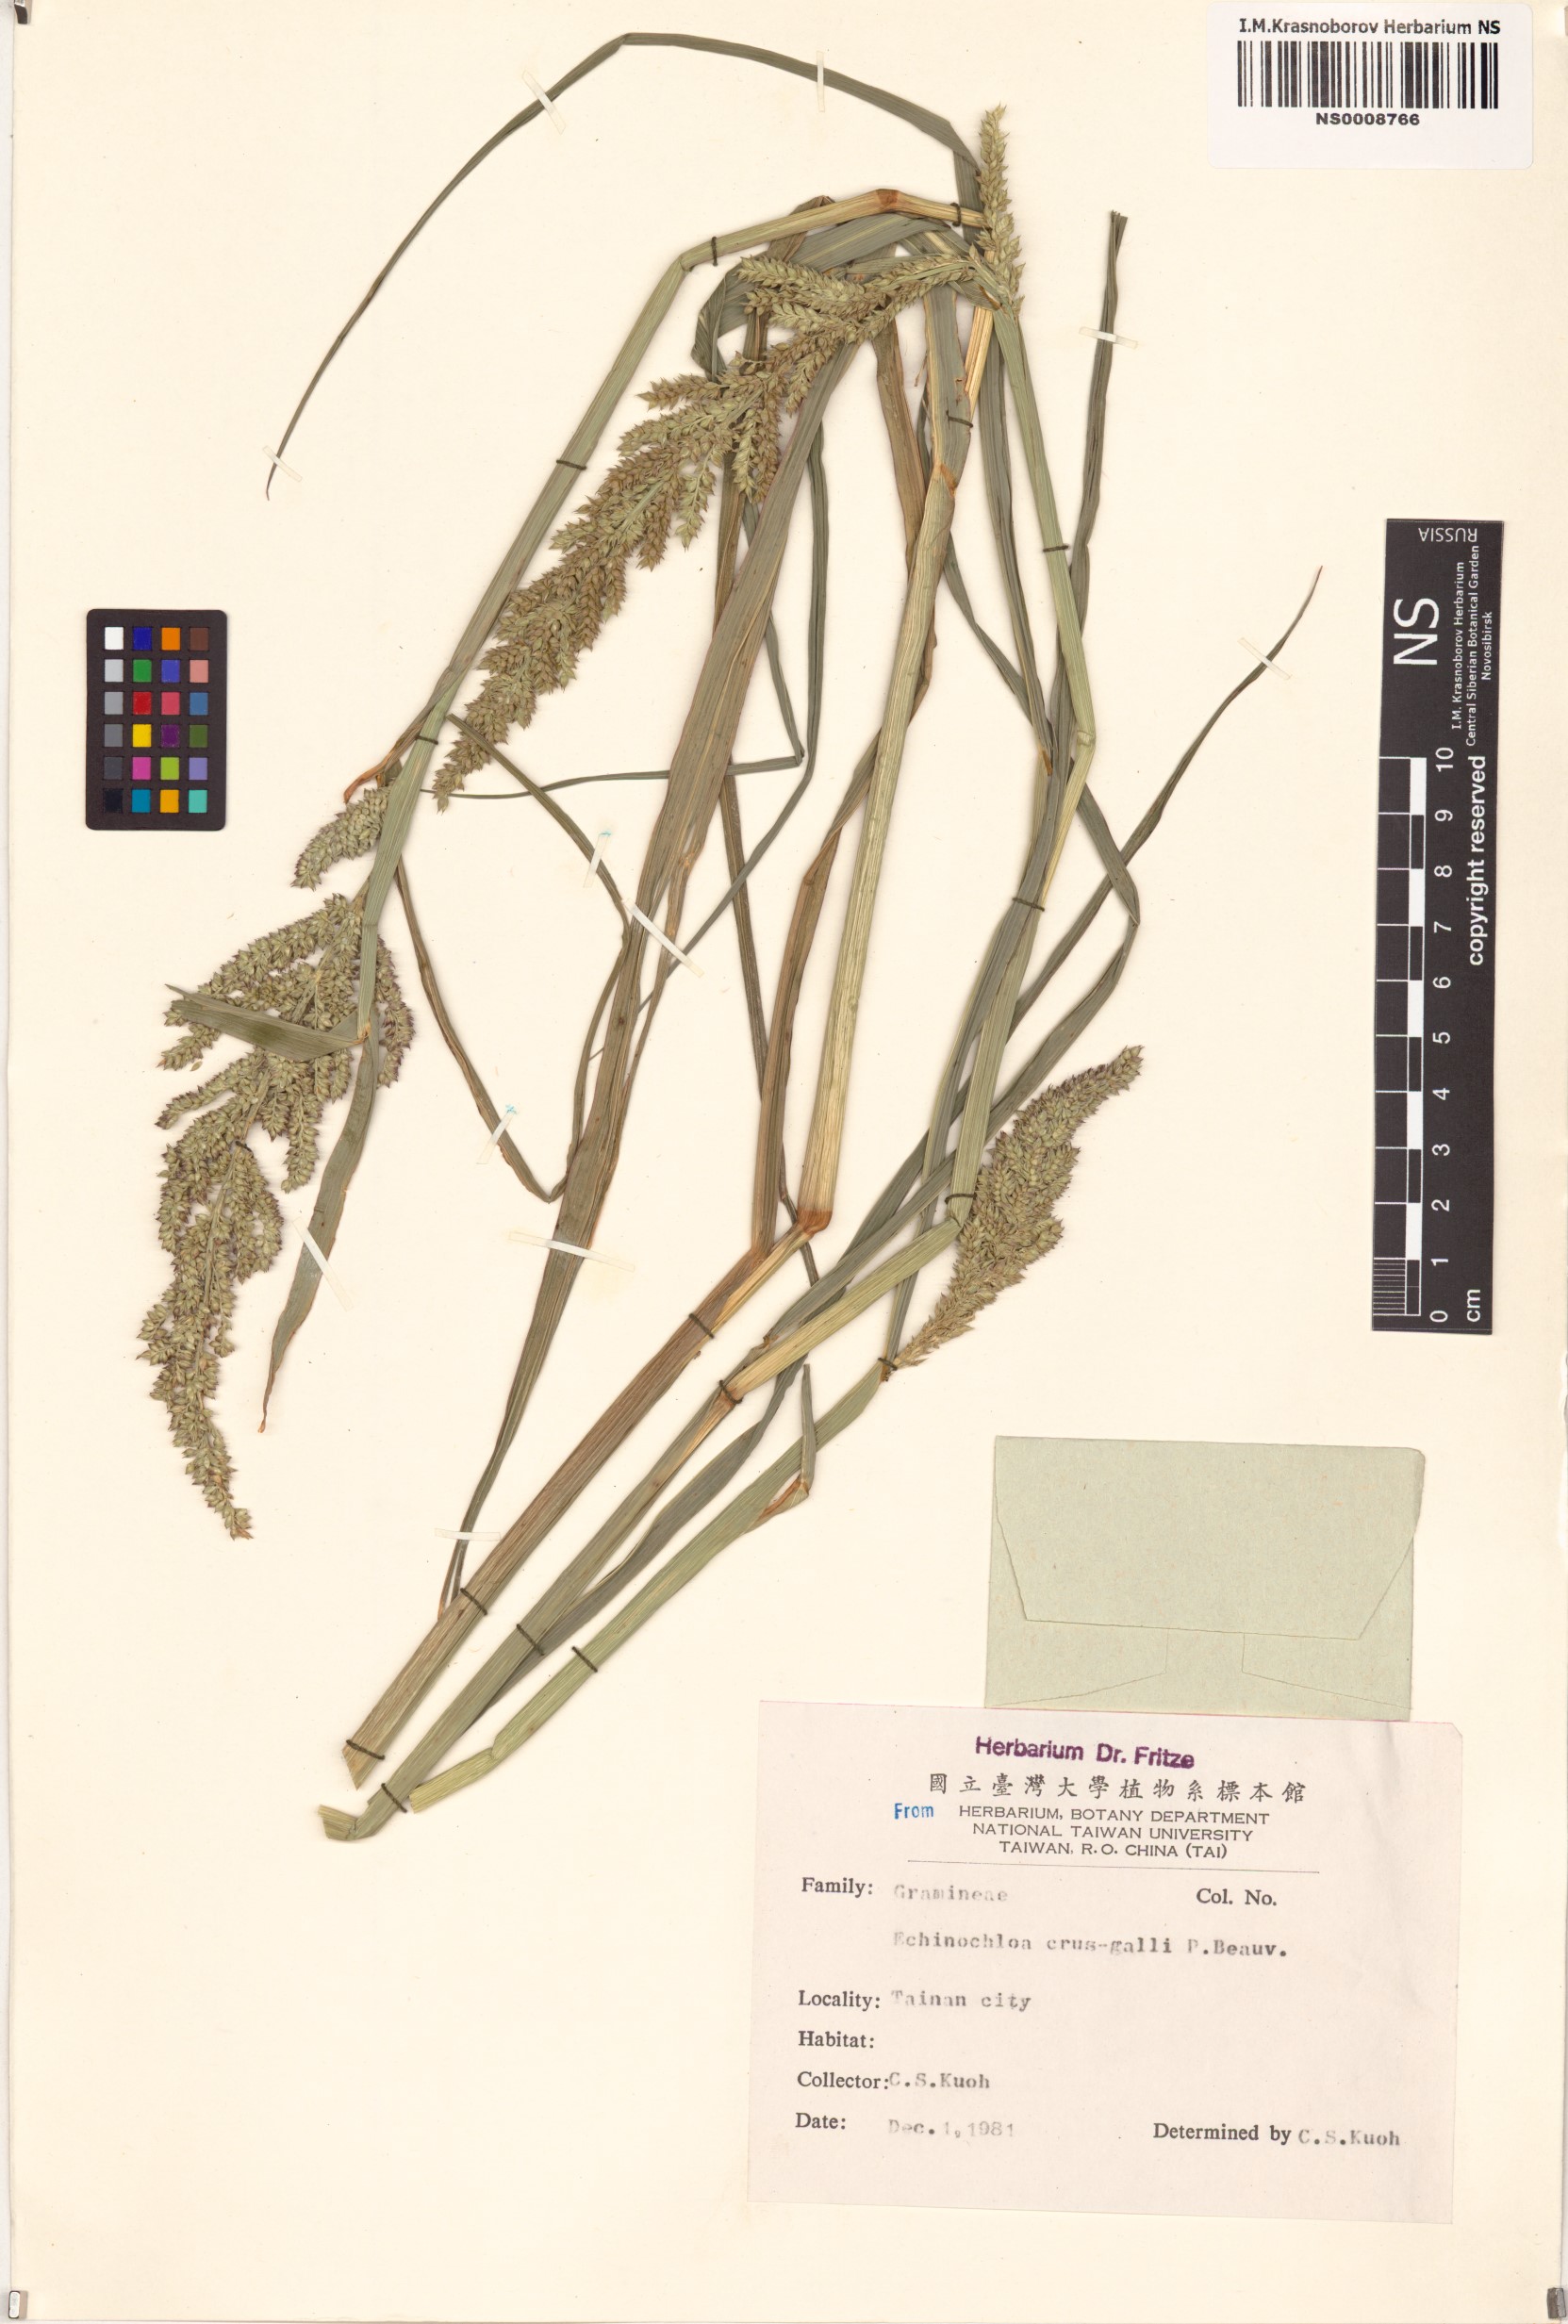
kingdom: Plantae
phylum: Tracheophyta
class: Liliopsida
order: Poales
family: Poaceae
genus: Echinochloa
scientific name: Echinochloa crus-galli
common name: Cockspur
